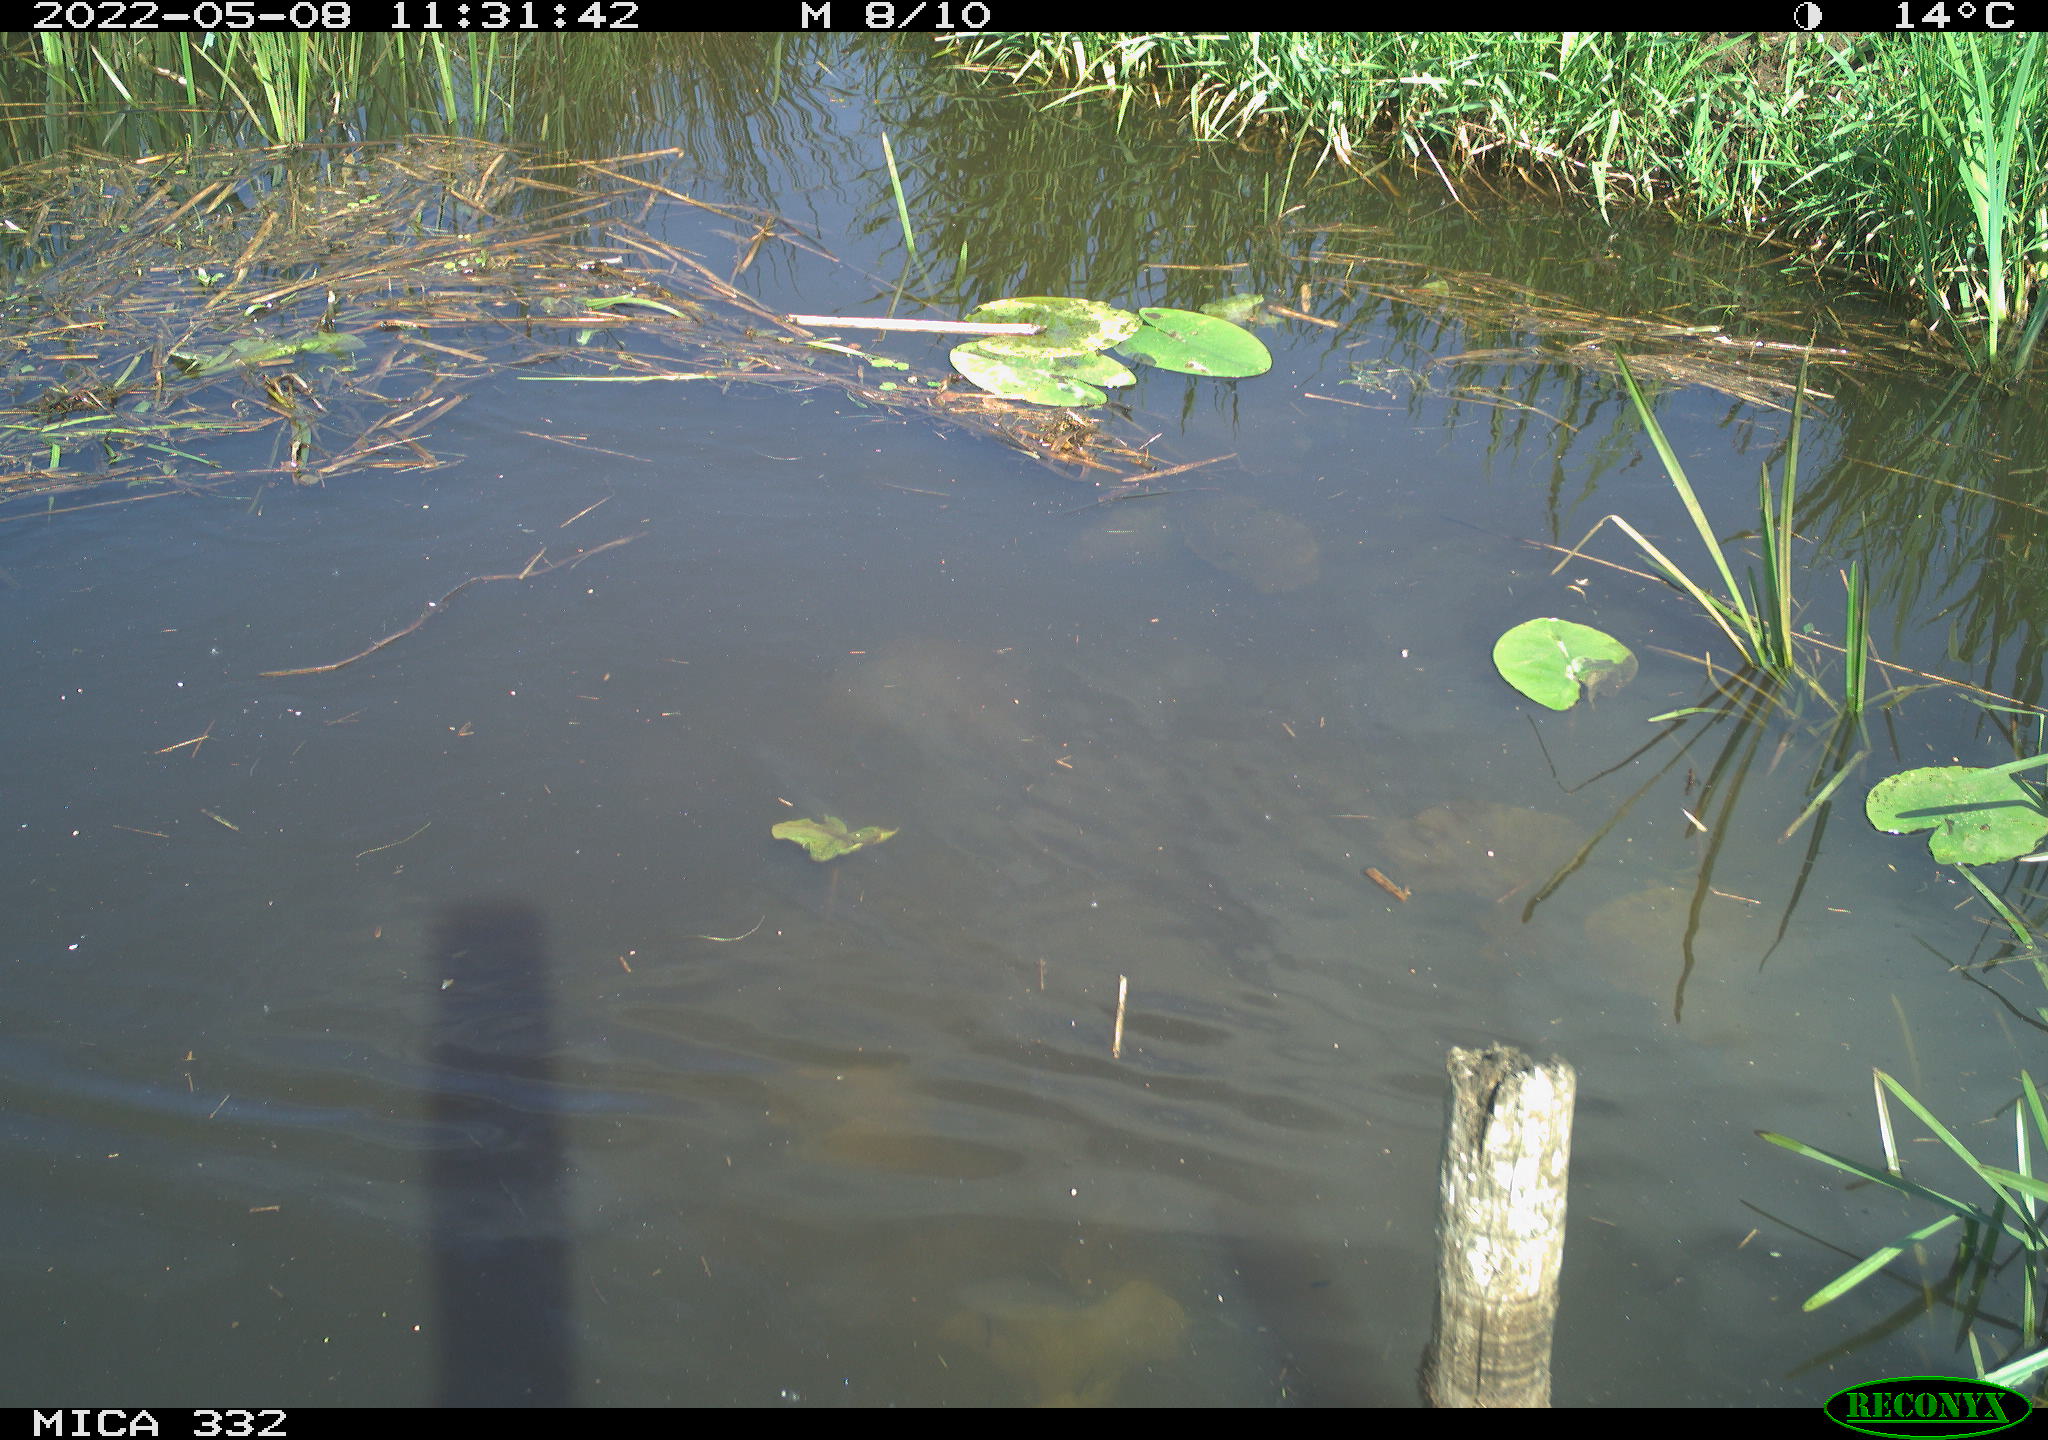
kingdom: Animalia
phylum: Chordata
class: Aves
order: Anseriformes
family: Anatidae
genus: Anas
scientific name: Anas platyrhynchos
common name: Mallard
